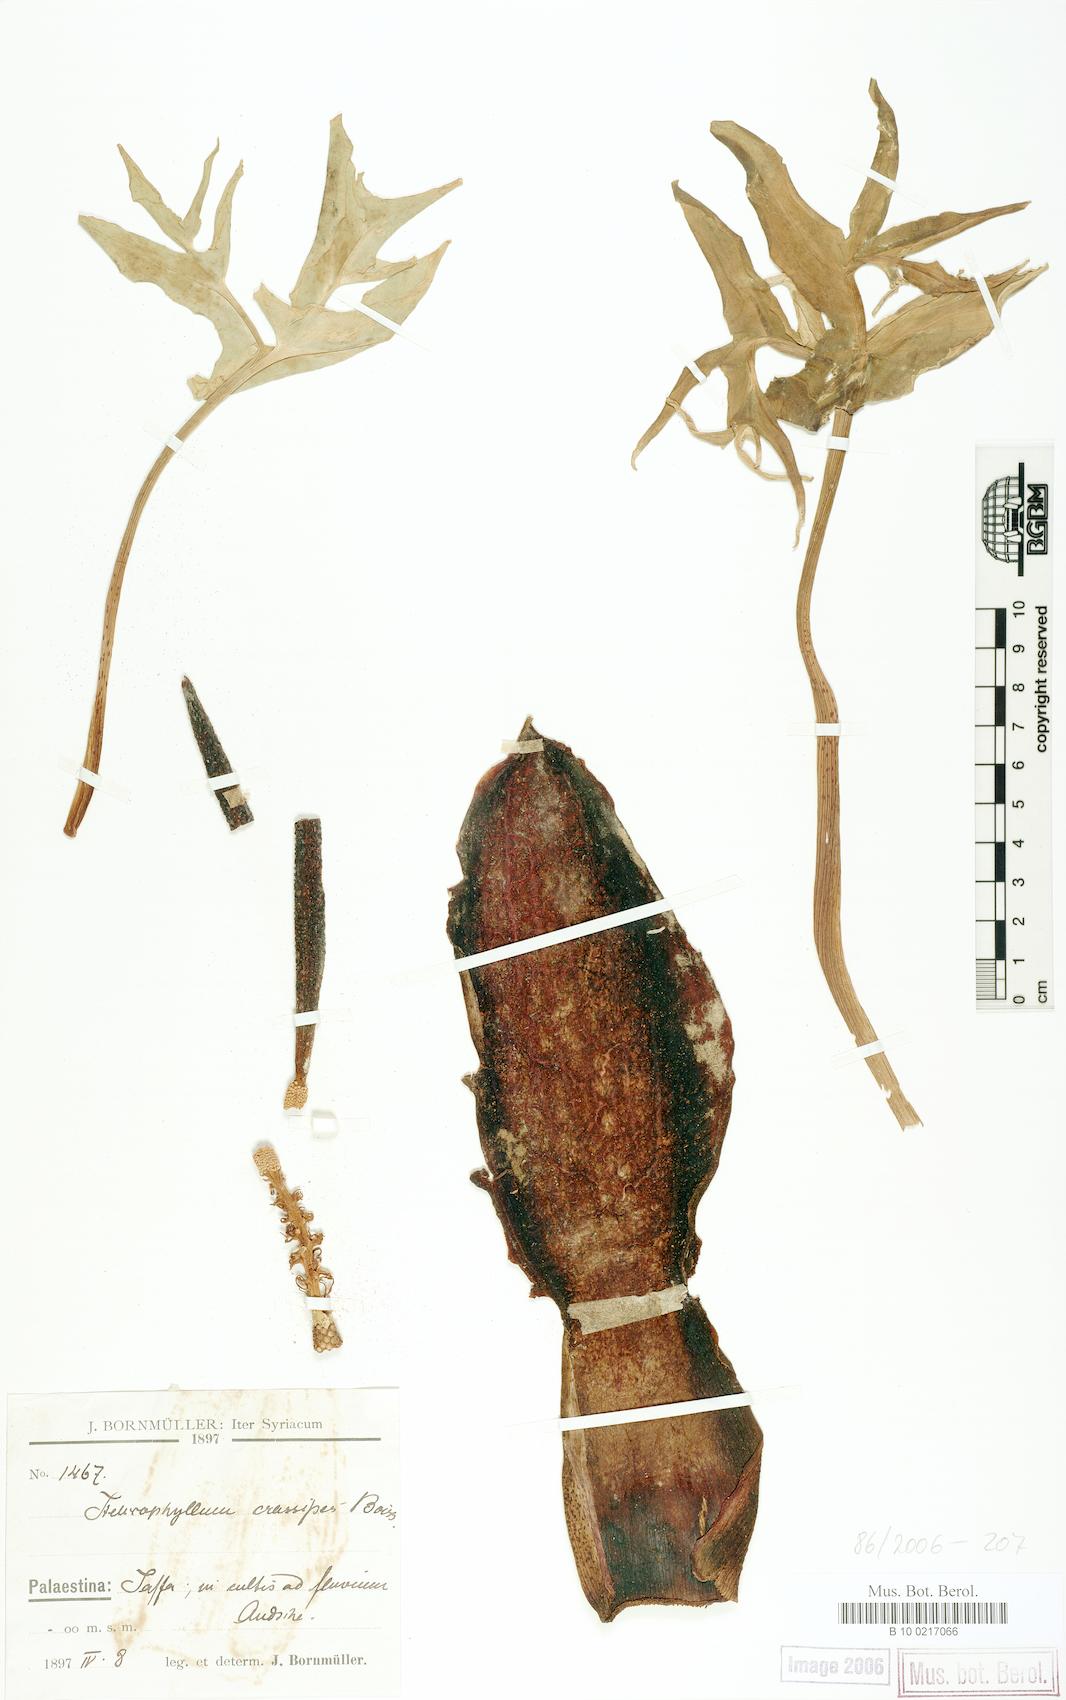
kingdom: Plantae
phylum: Tracheophyta
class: Liliopsida
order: Alismatales
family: Araceae
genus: Eminium
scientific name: Eminium spiculatum
